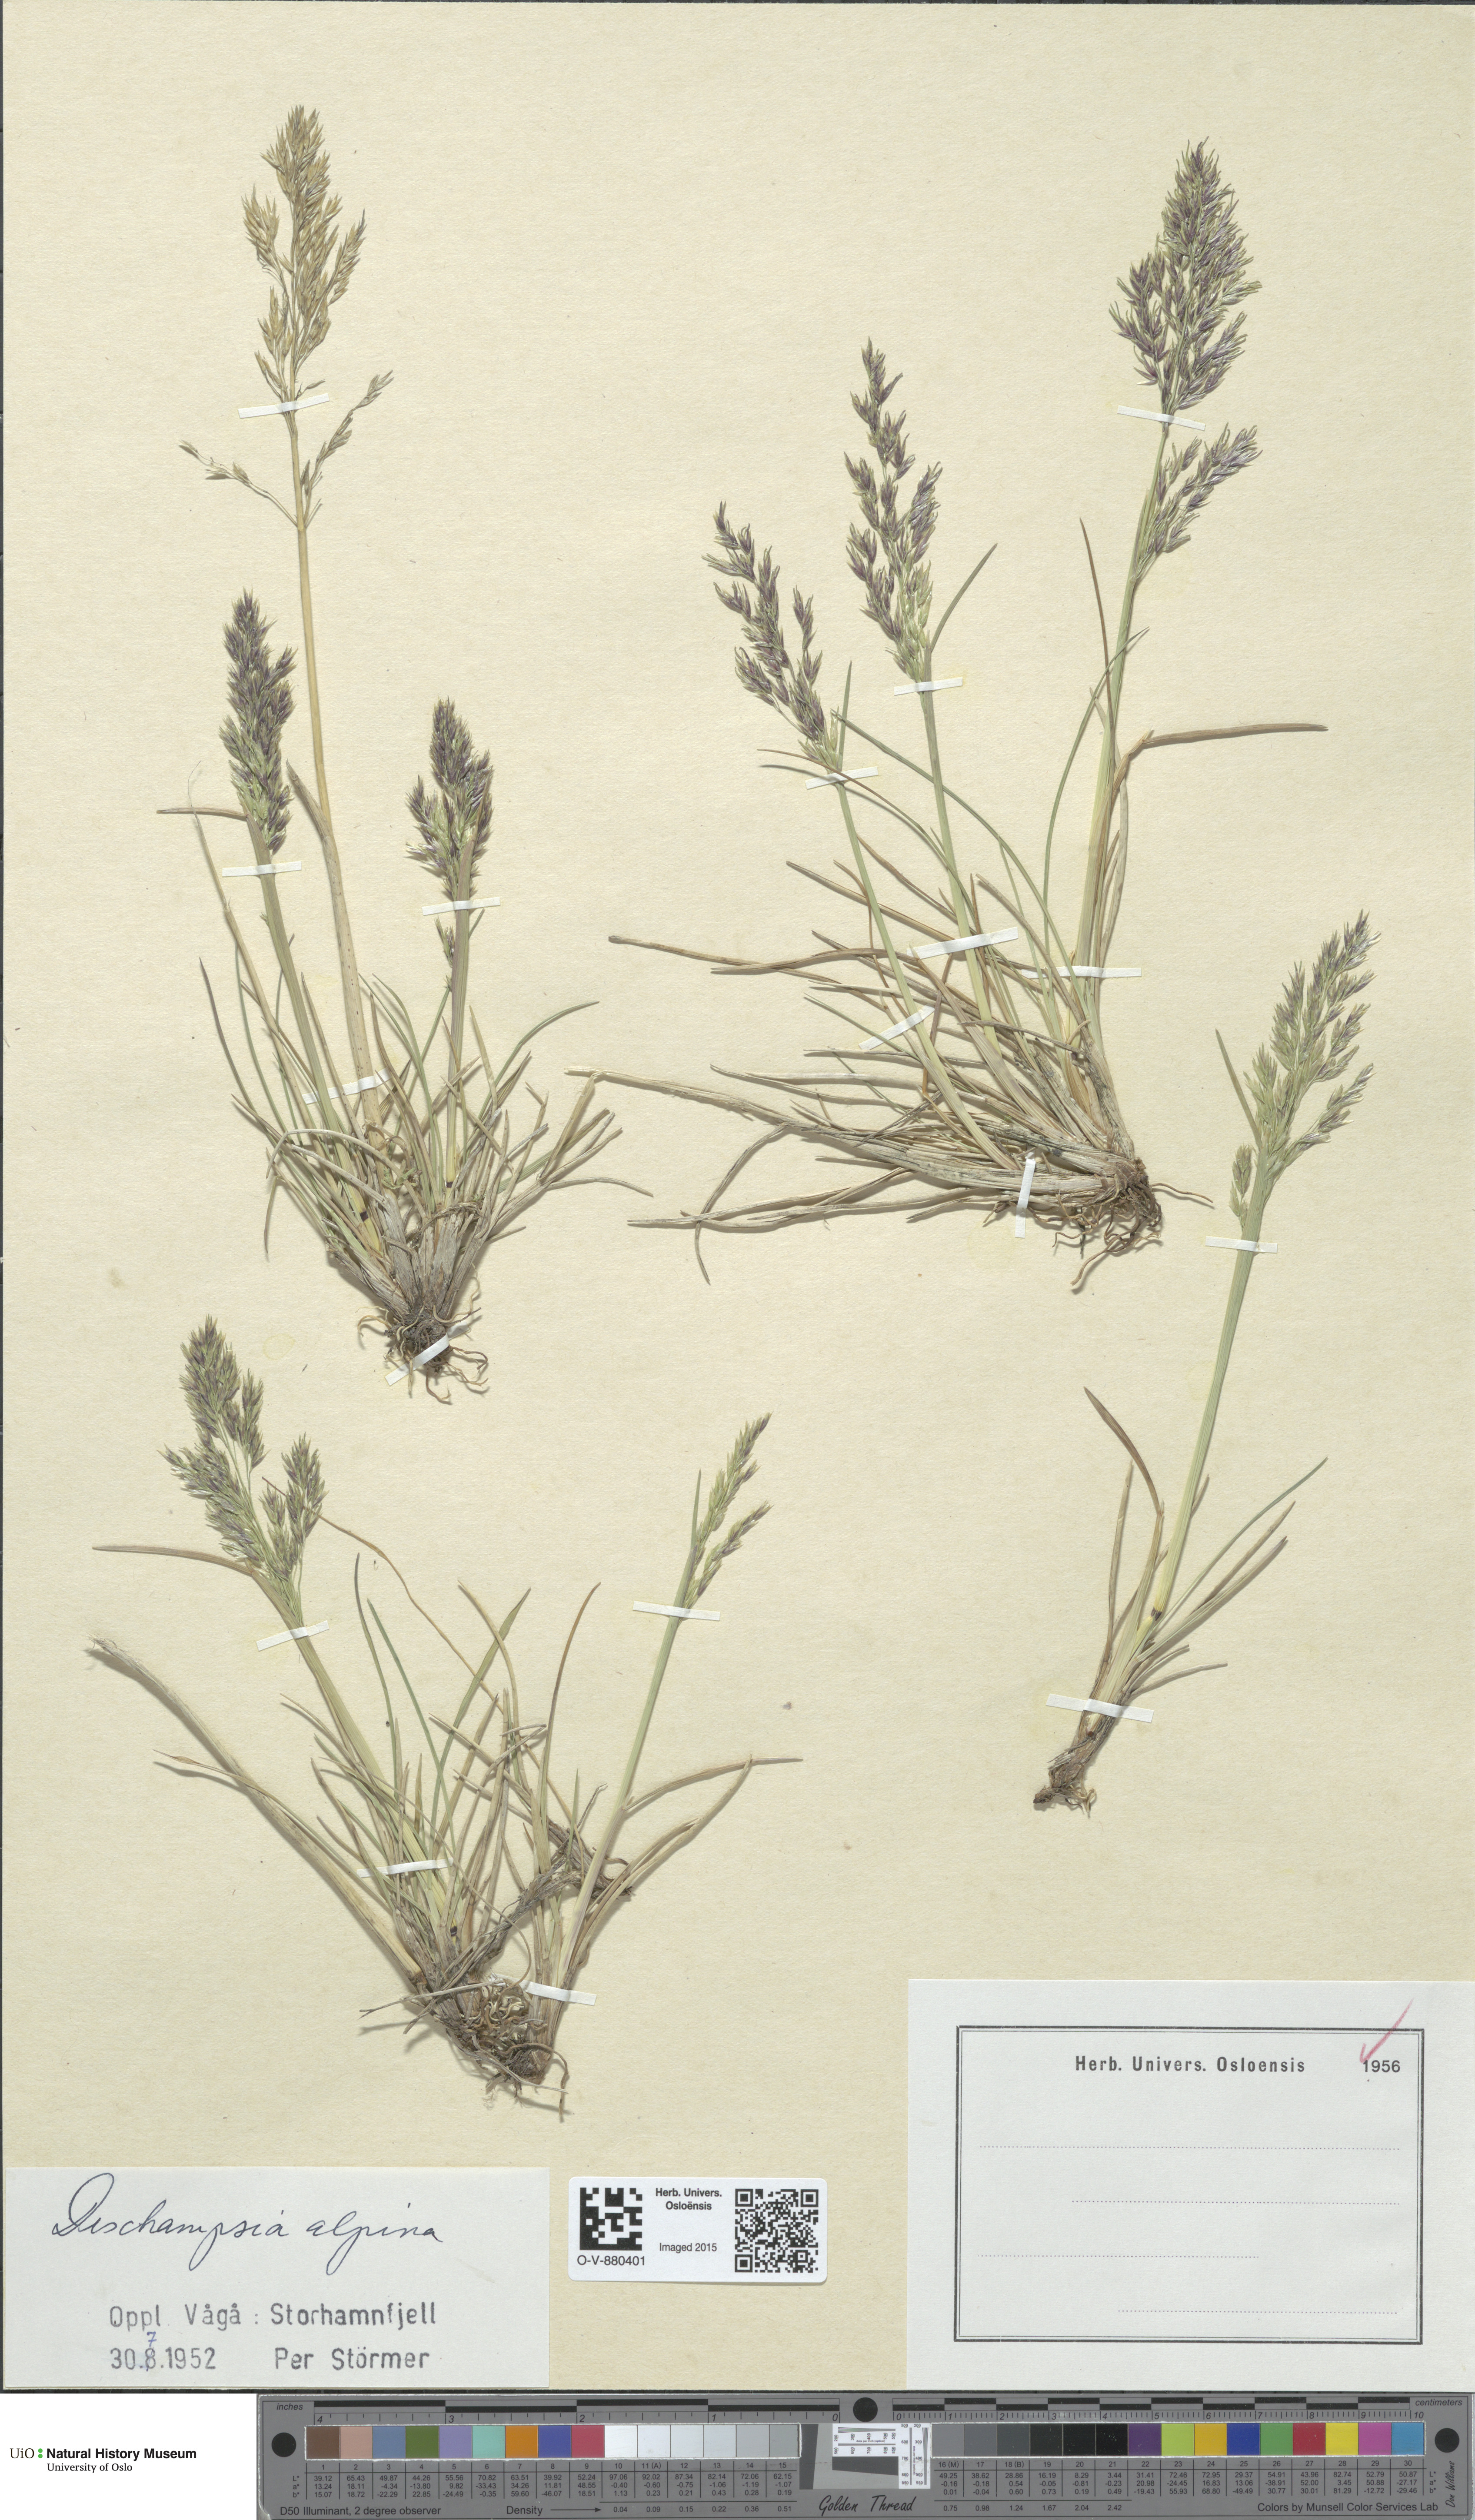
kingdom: Plantae
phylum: Tracheophyta
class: Liliopsida
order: Poales
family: Poaceae
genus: Deschampsia
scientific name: Deschampsia cespitosa
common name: Tufted hair-grass
